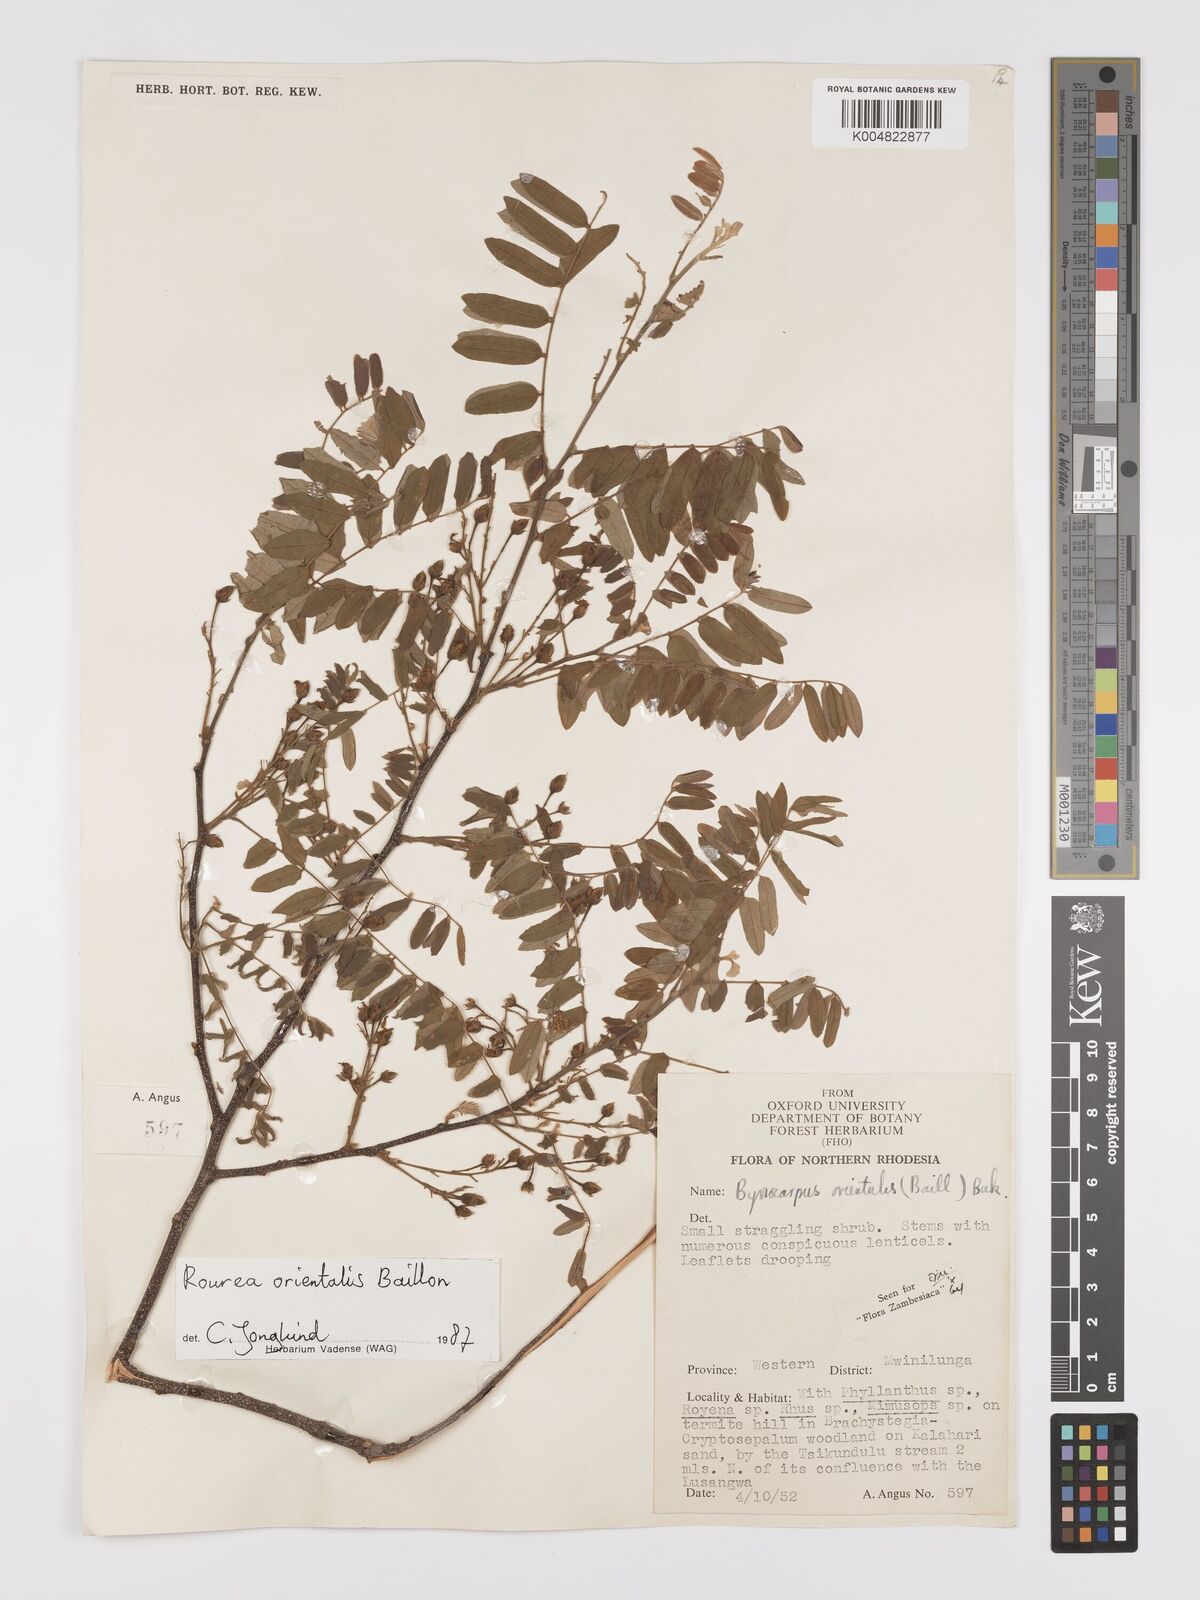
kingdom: Plantae
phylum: Tracheophyta
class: Magnoliopsida
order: Oxalidales
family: Connaraceae
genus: Rourea
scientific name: Rourea orientalis
